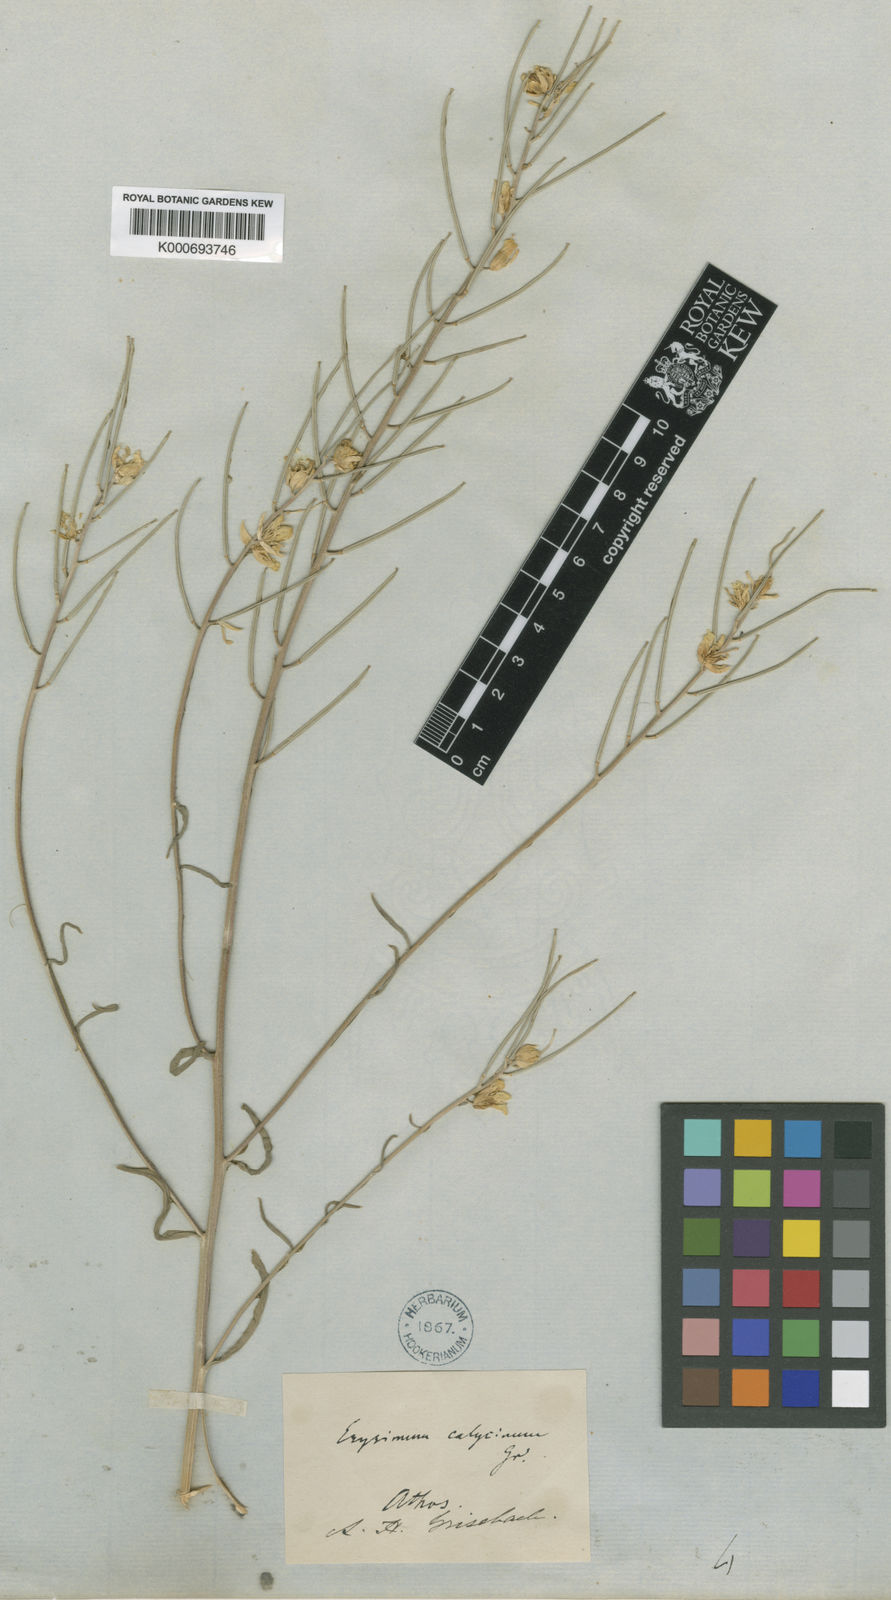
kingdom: Plantae
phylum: Tracheophyta
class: Magnoliopsida
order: Brassicales
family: Brassicaceae
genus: Erysimum
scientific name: Erysimum calycinum
